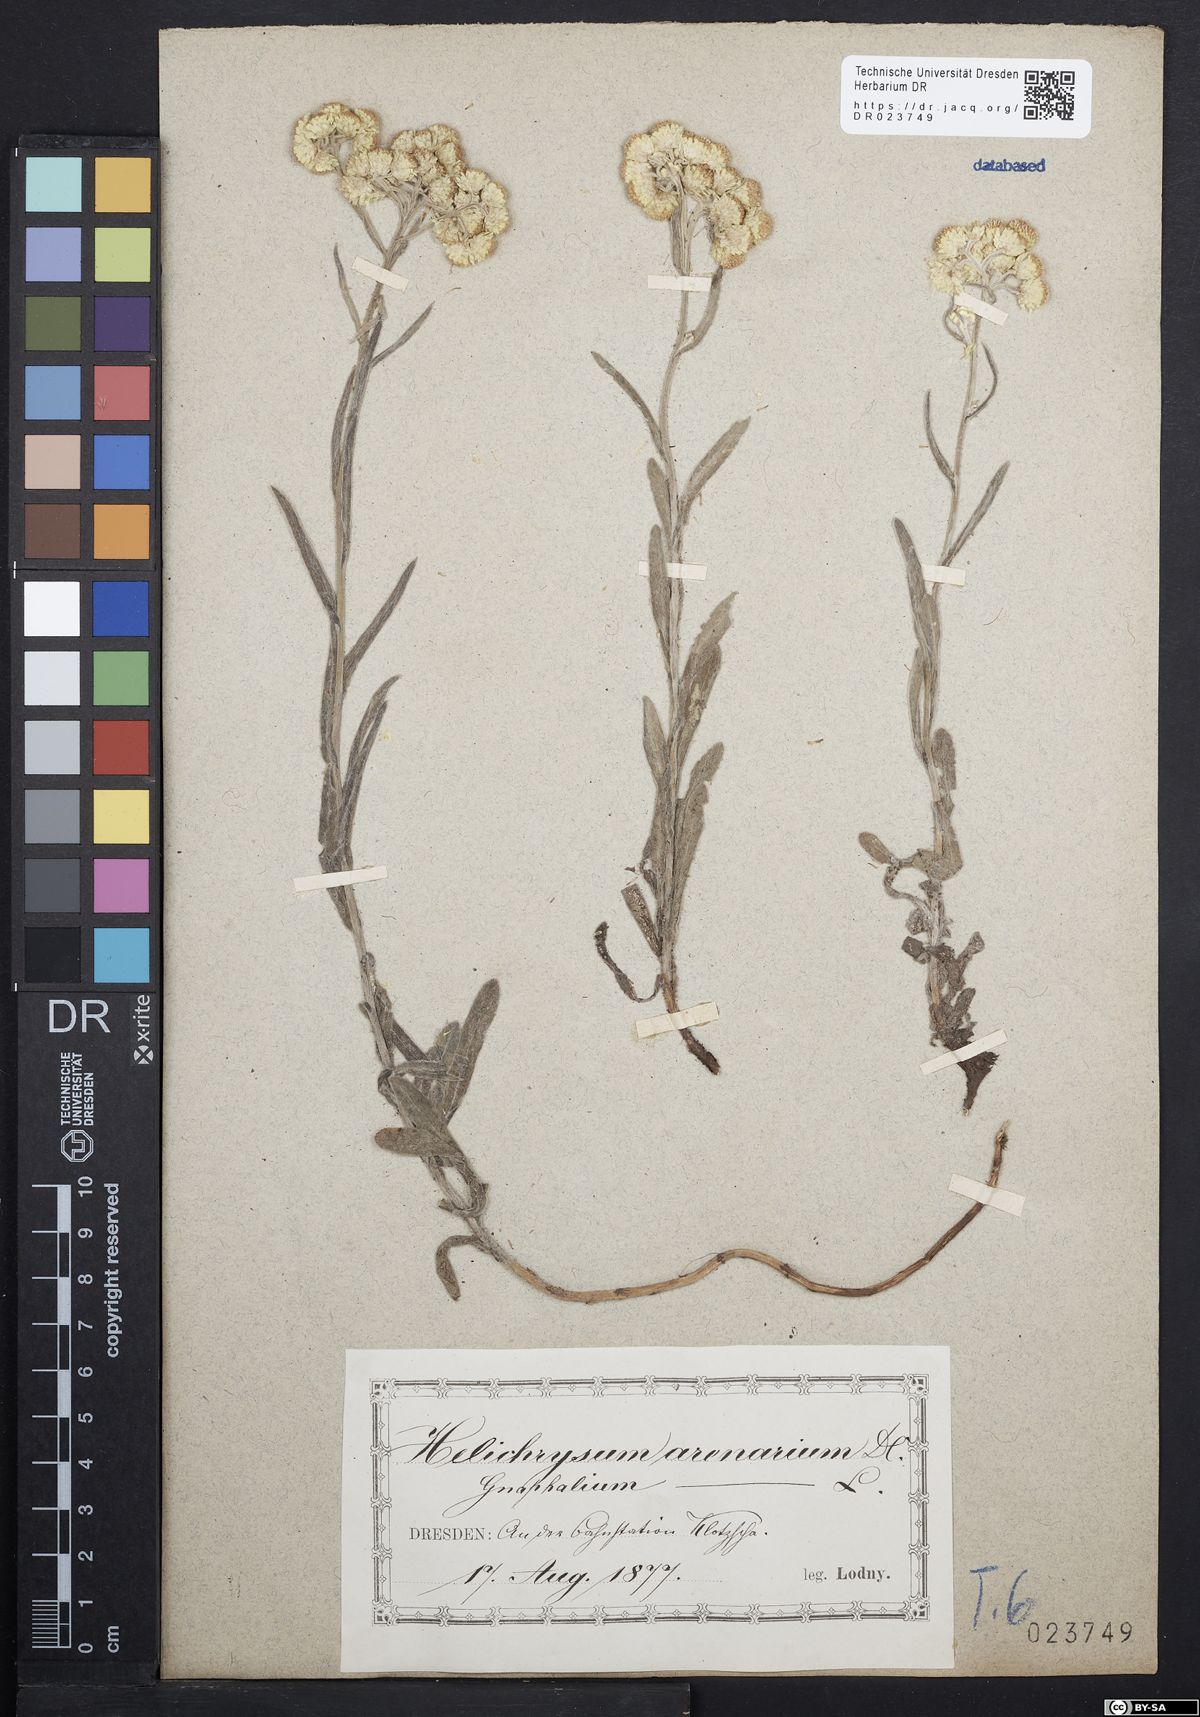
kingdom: Plantae
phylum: Tracheophyta
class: Magnoliopsida
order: Asterales
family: Asteraceae
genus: Helichrysum
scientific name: Helichrysum arenarium
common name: Strawflower
